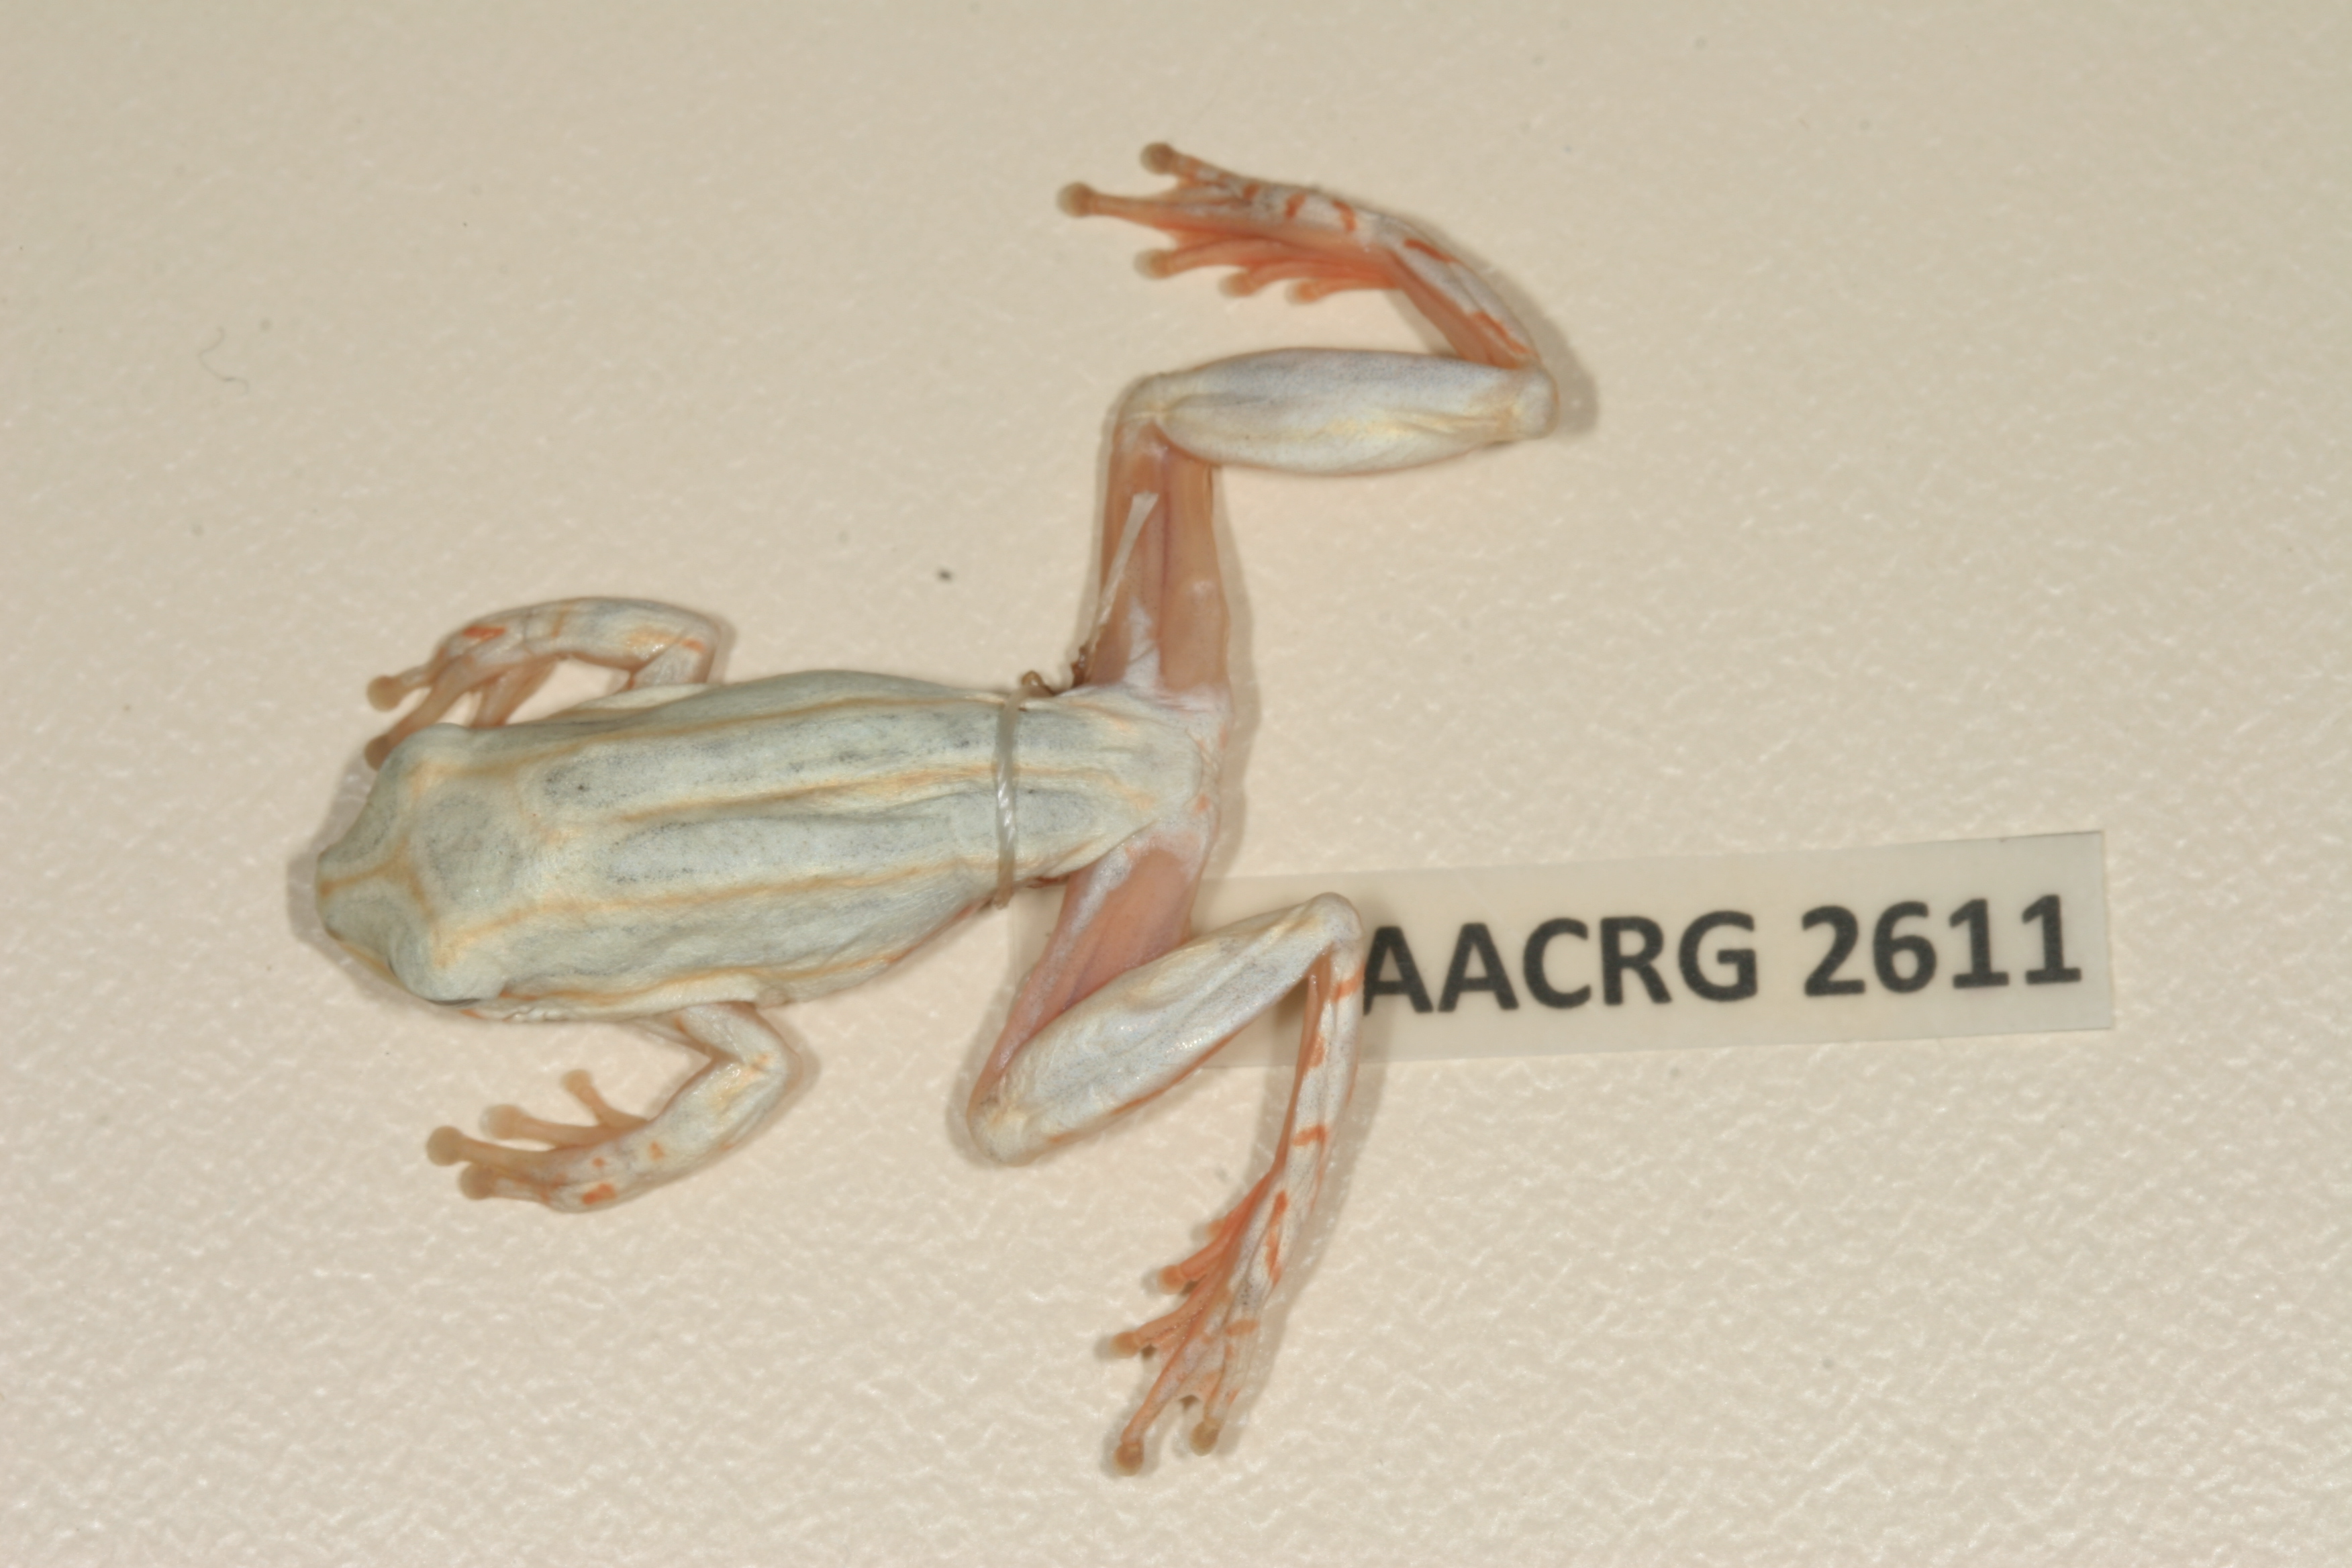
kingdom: Animalia
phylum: Chordata
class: Amphibia
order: Anura
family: Hyperoliidae
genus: Hyperolius
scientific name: Hyperolius marmoratus
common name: Painted reed frog
